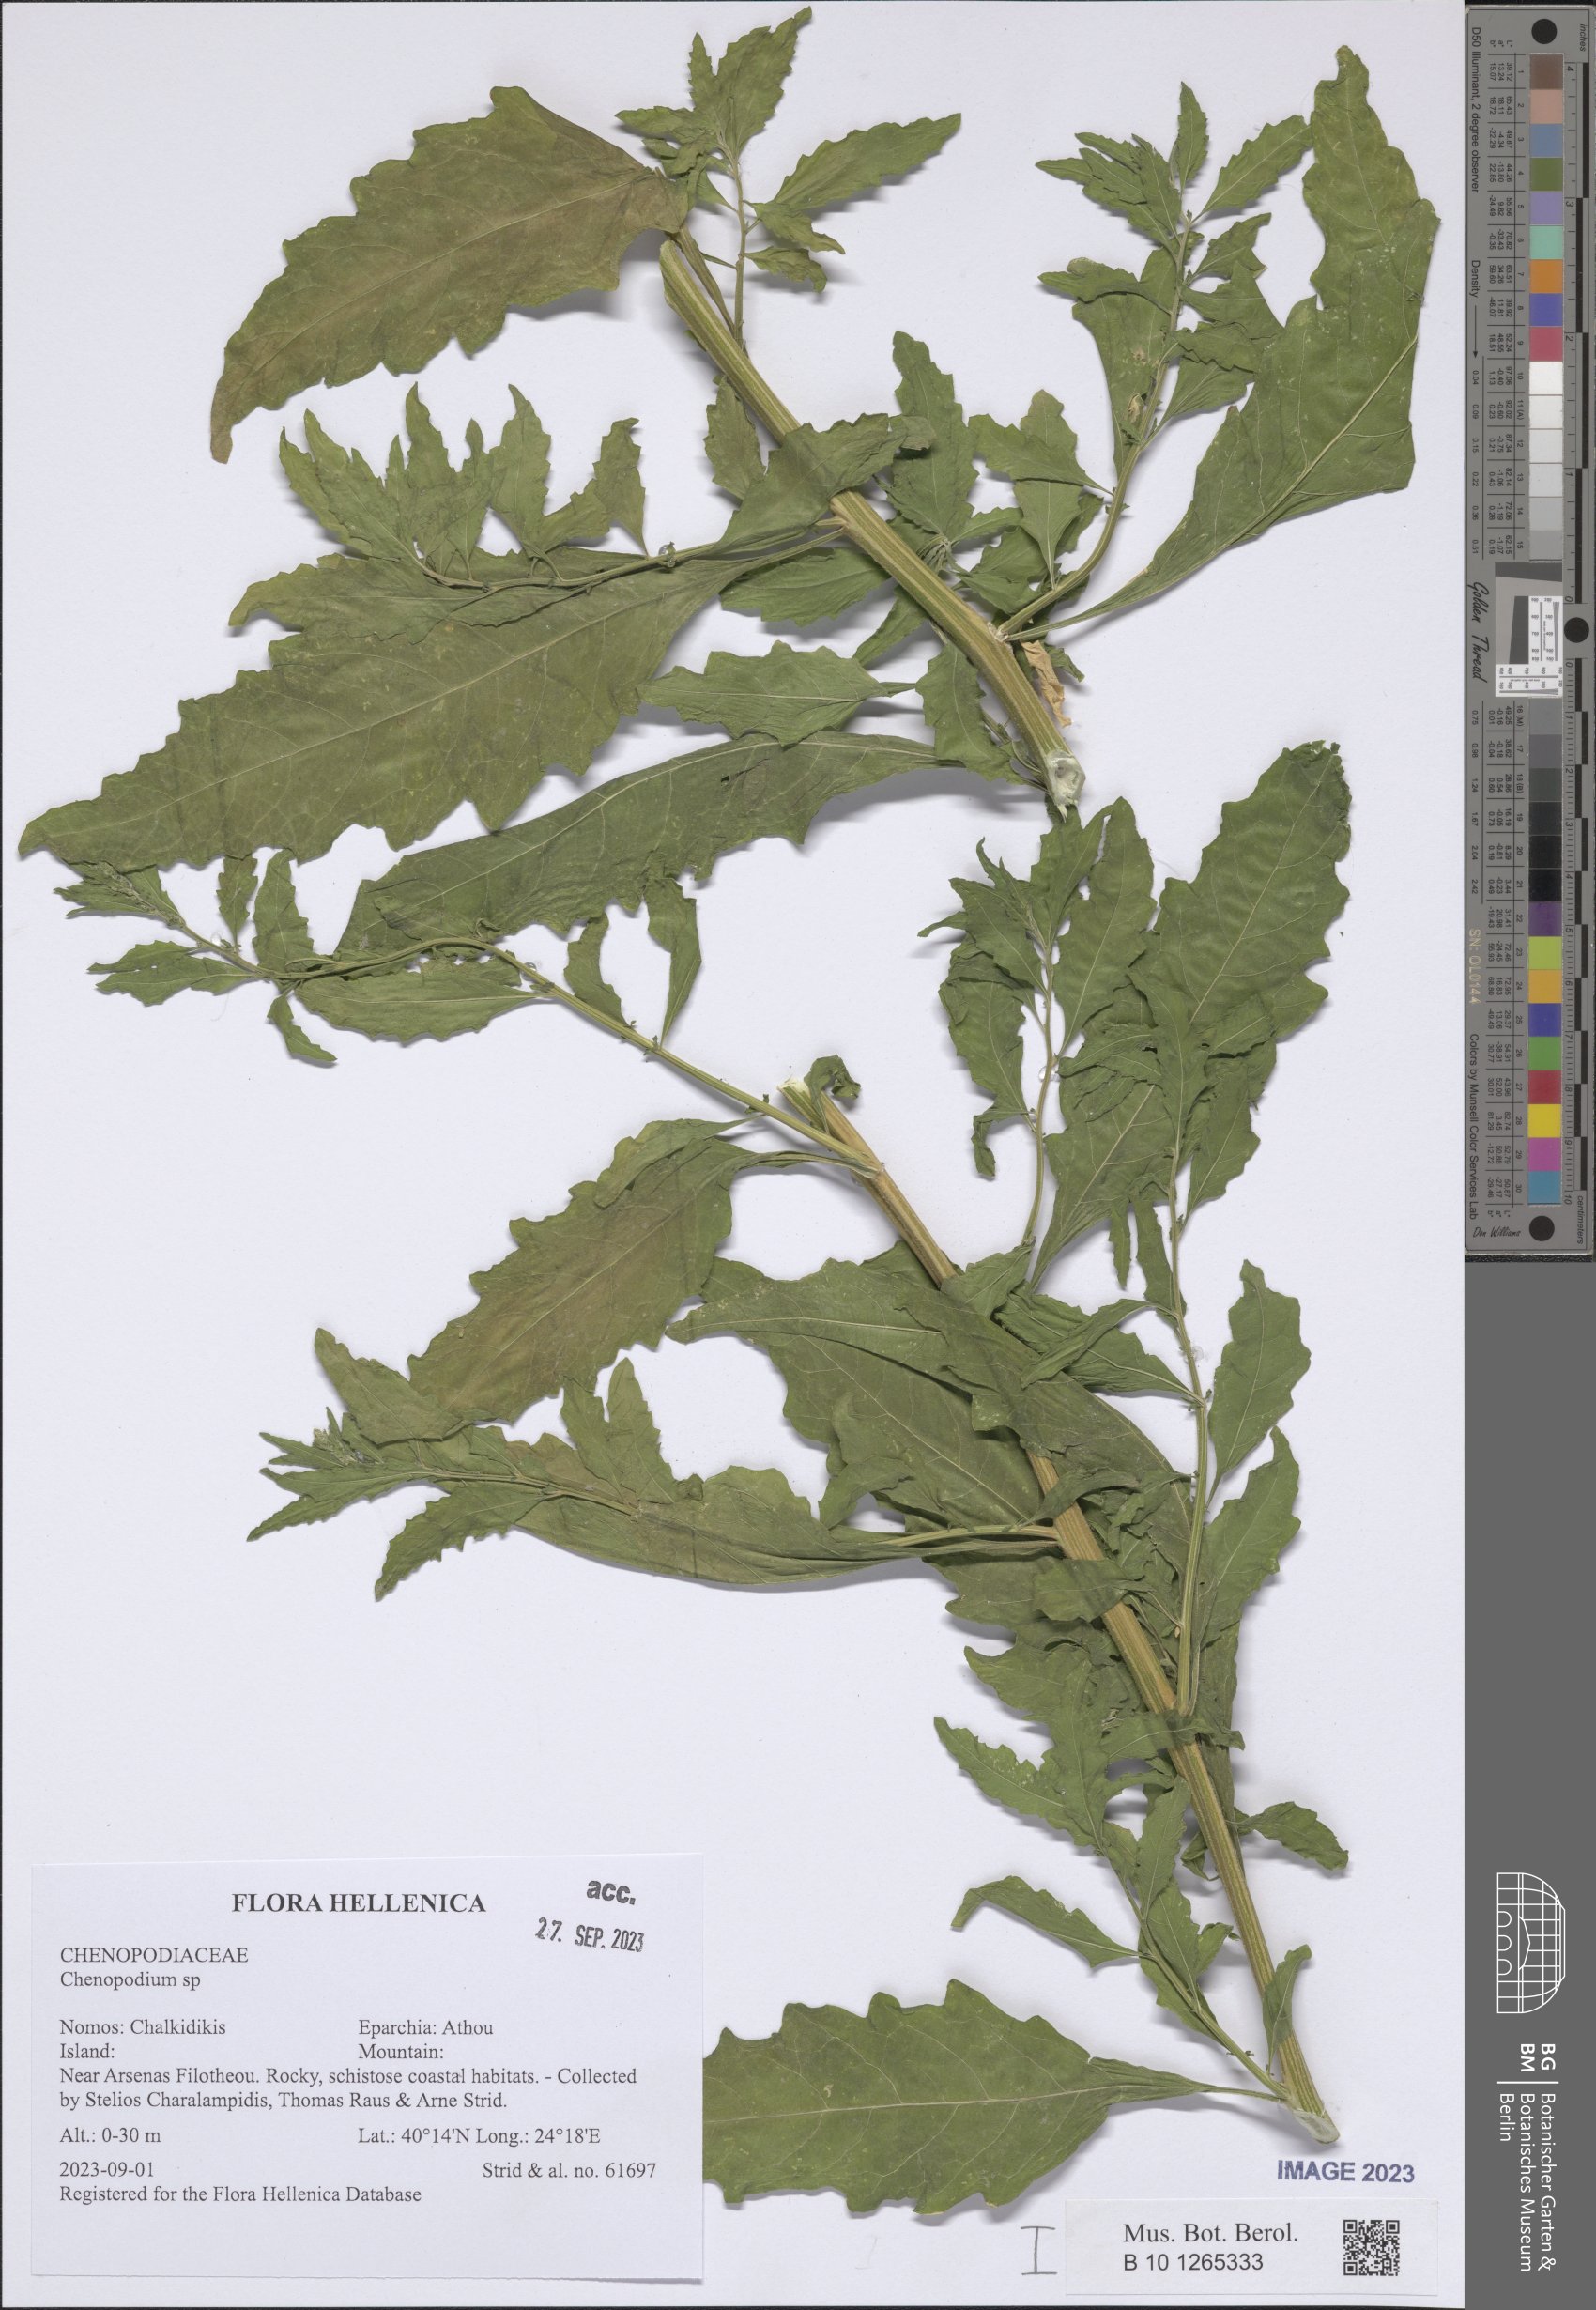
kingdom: Plantae
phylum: Tracheophyta
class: Magnoliopsida
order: Caryophyllales
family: Amaranthaceae
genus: Chenopodium
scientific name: Chenopodium
